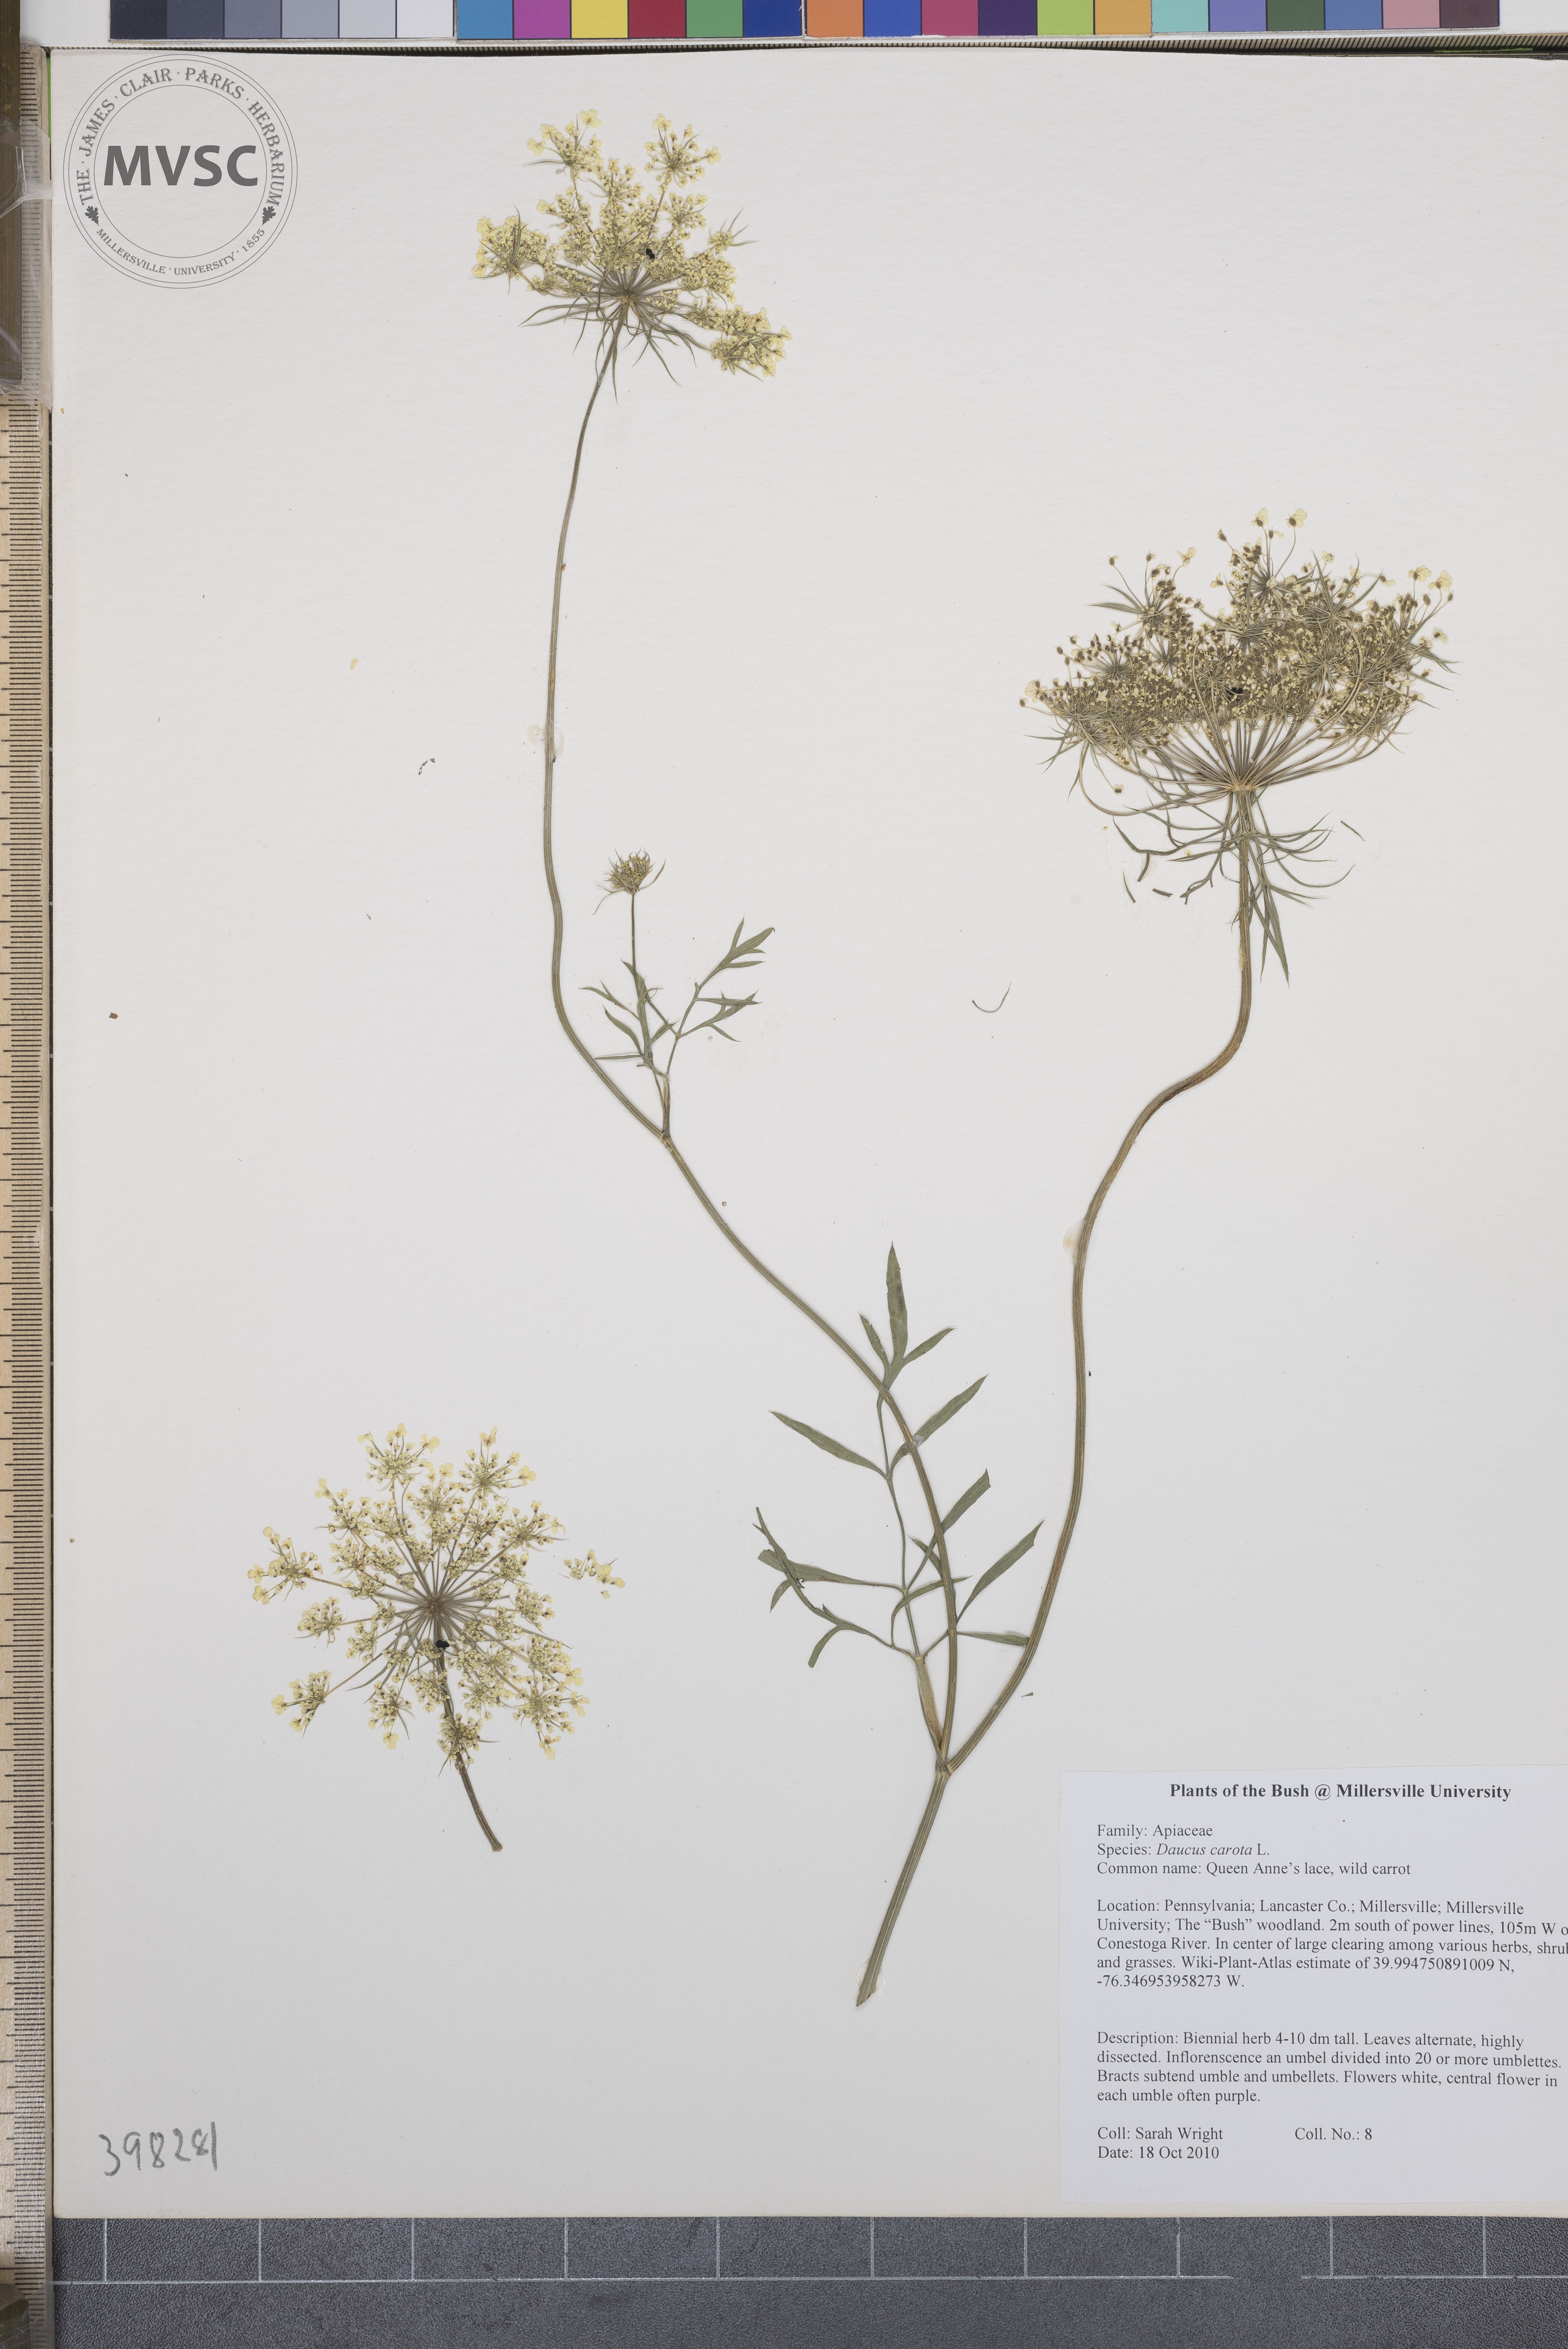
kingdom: Plantae
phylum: Tracheophyta
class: Magnoliopsida
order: Apiales
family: Apiaceae
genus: Daucus
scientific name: Daucus carota
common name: Queen Anne's-lace
